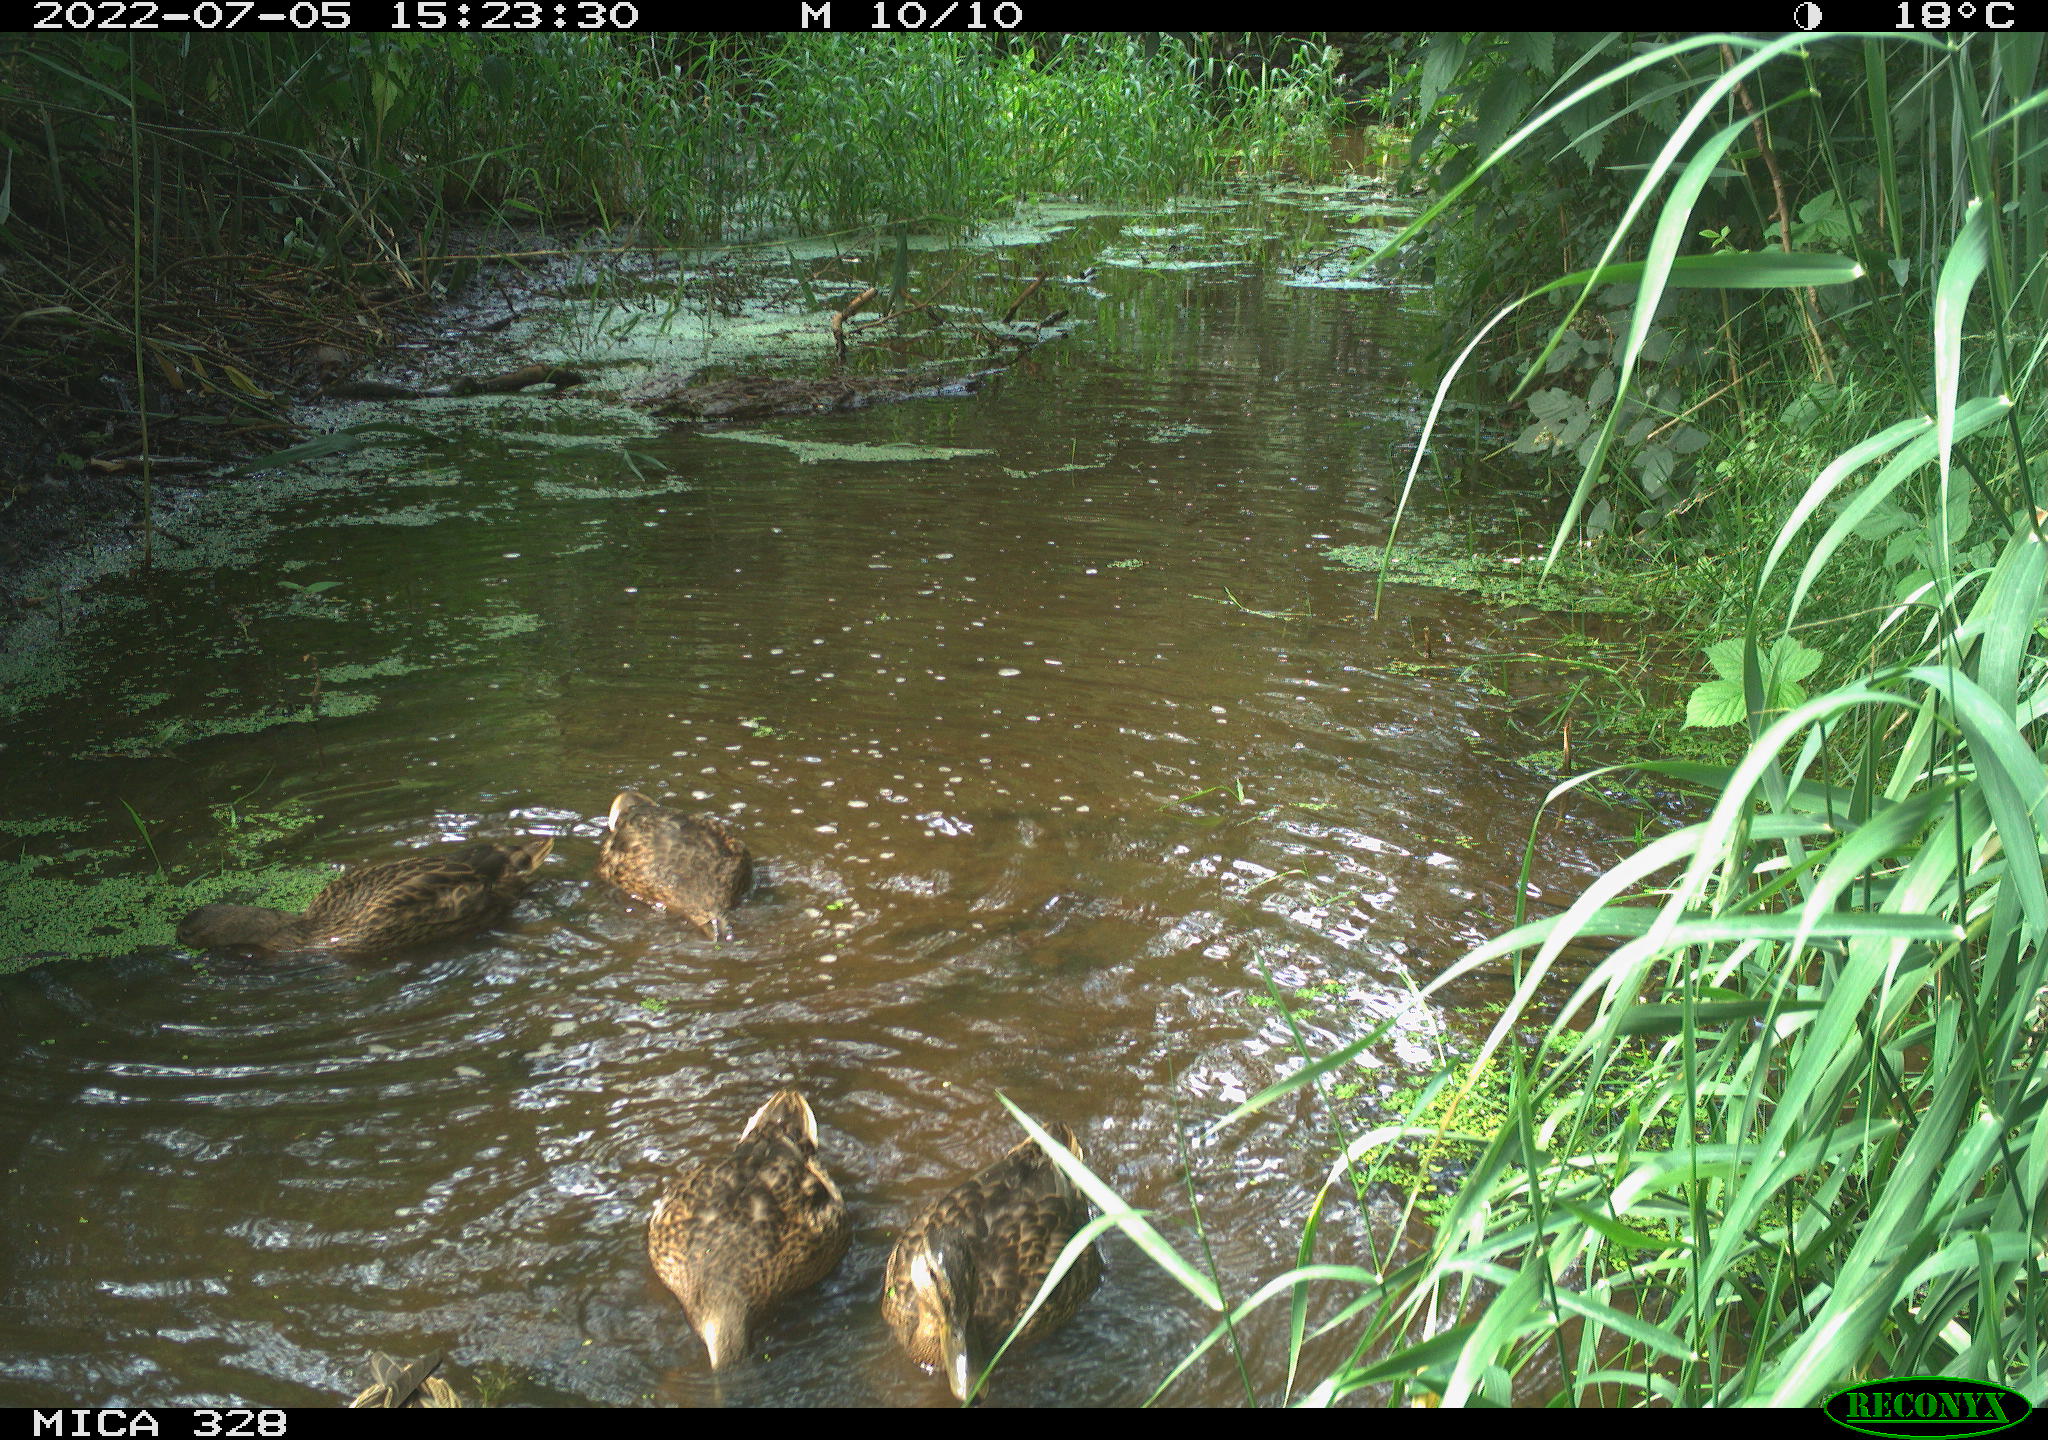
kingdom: Animalia
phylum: Chordata
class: Aves
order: Anseriformes
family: Anatidae
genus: Anas
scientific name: Anas
